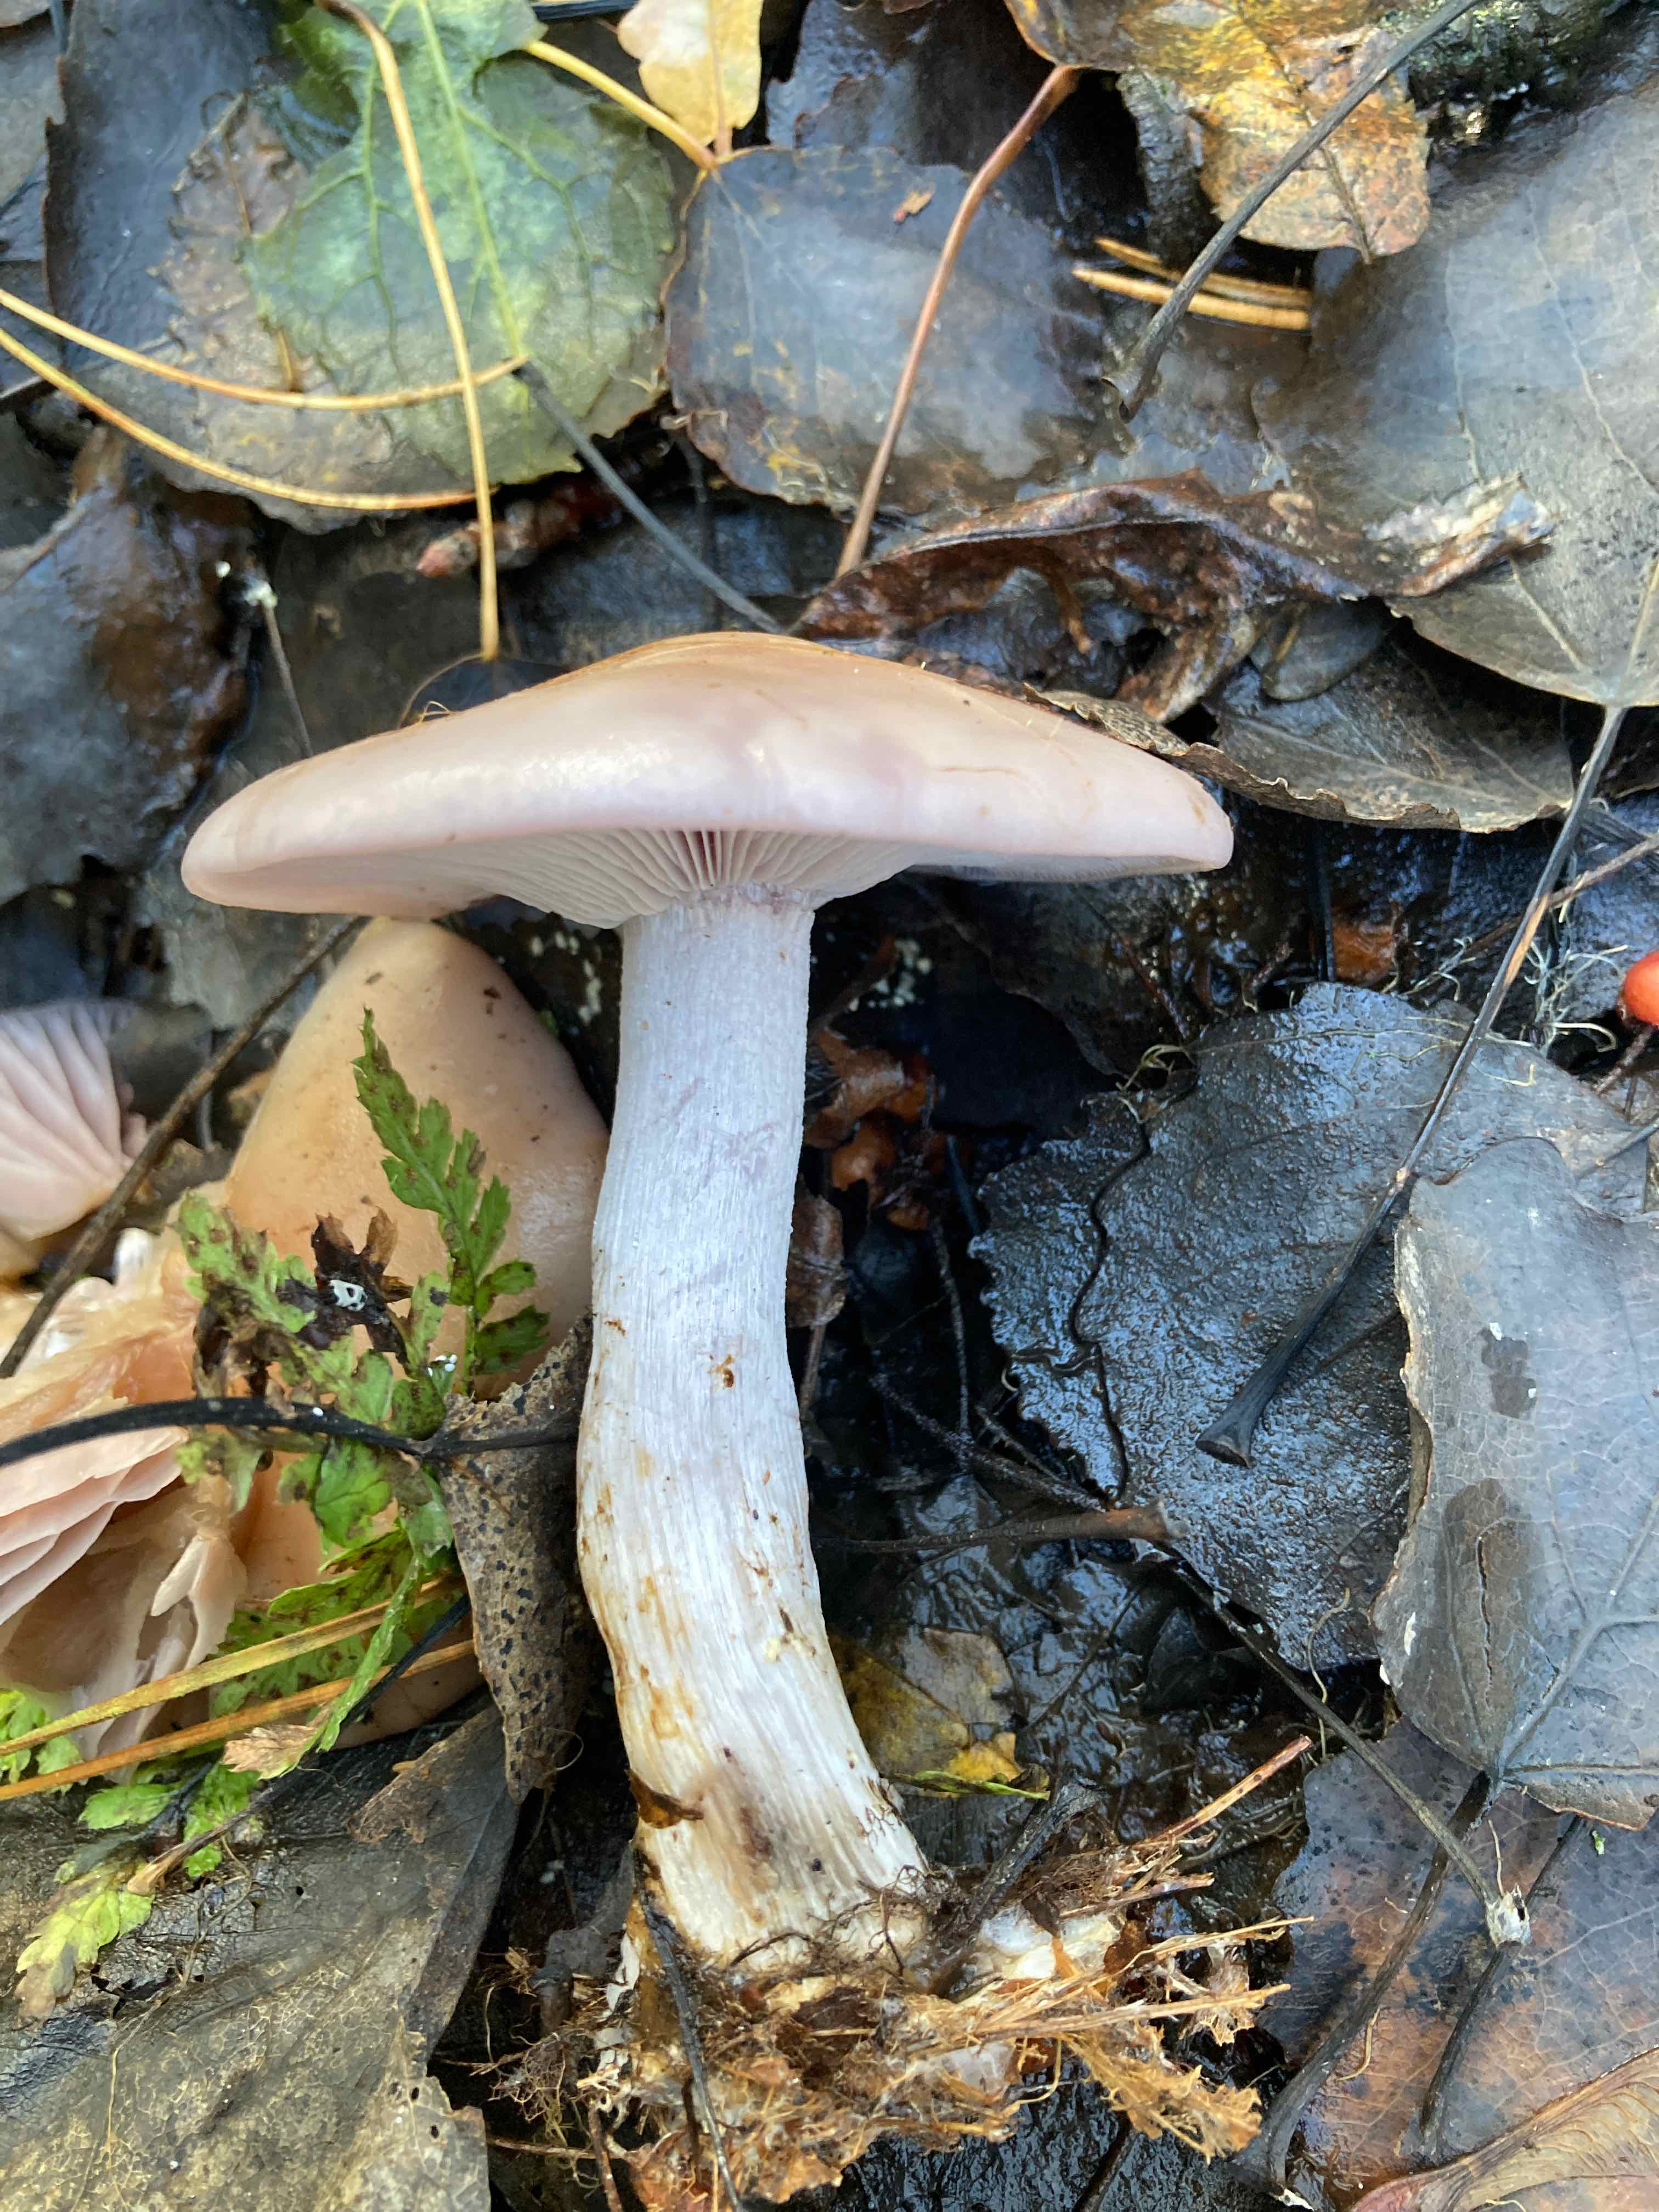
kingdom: Fungi
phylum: Basidiomycota
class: Agaricomycetes
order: Agaricales
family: Tricholomataceae
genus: Lepista
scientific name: Lepista nuda
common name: violet hekseringshat
